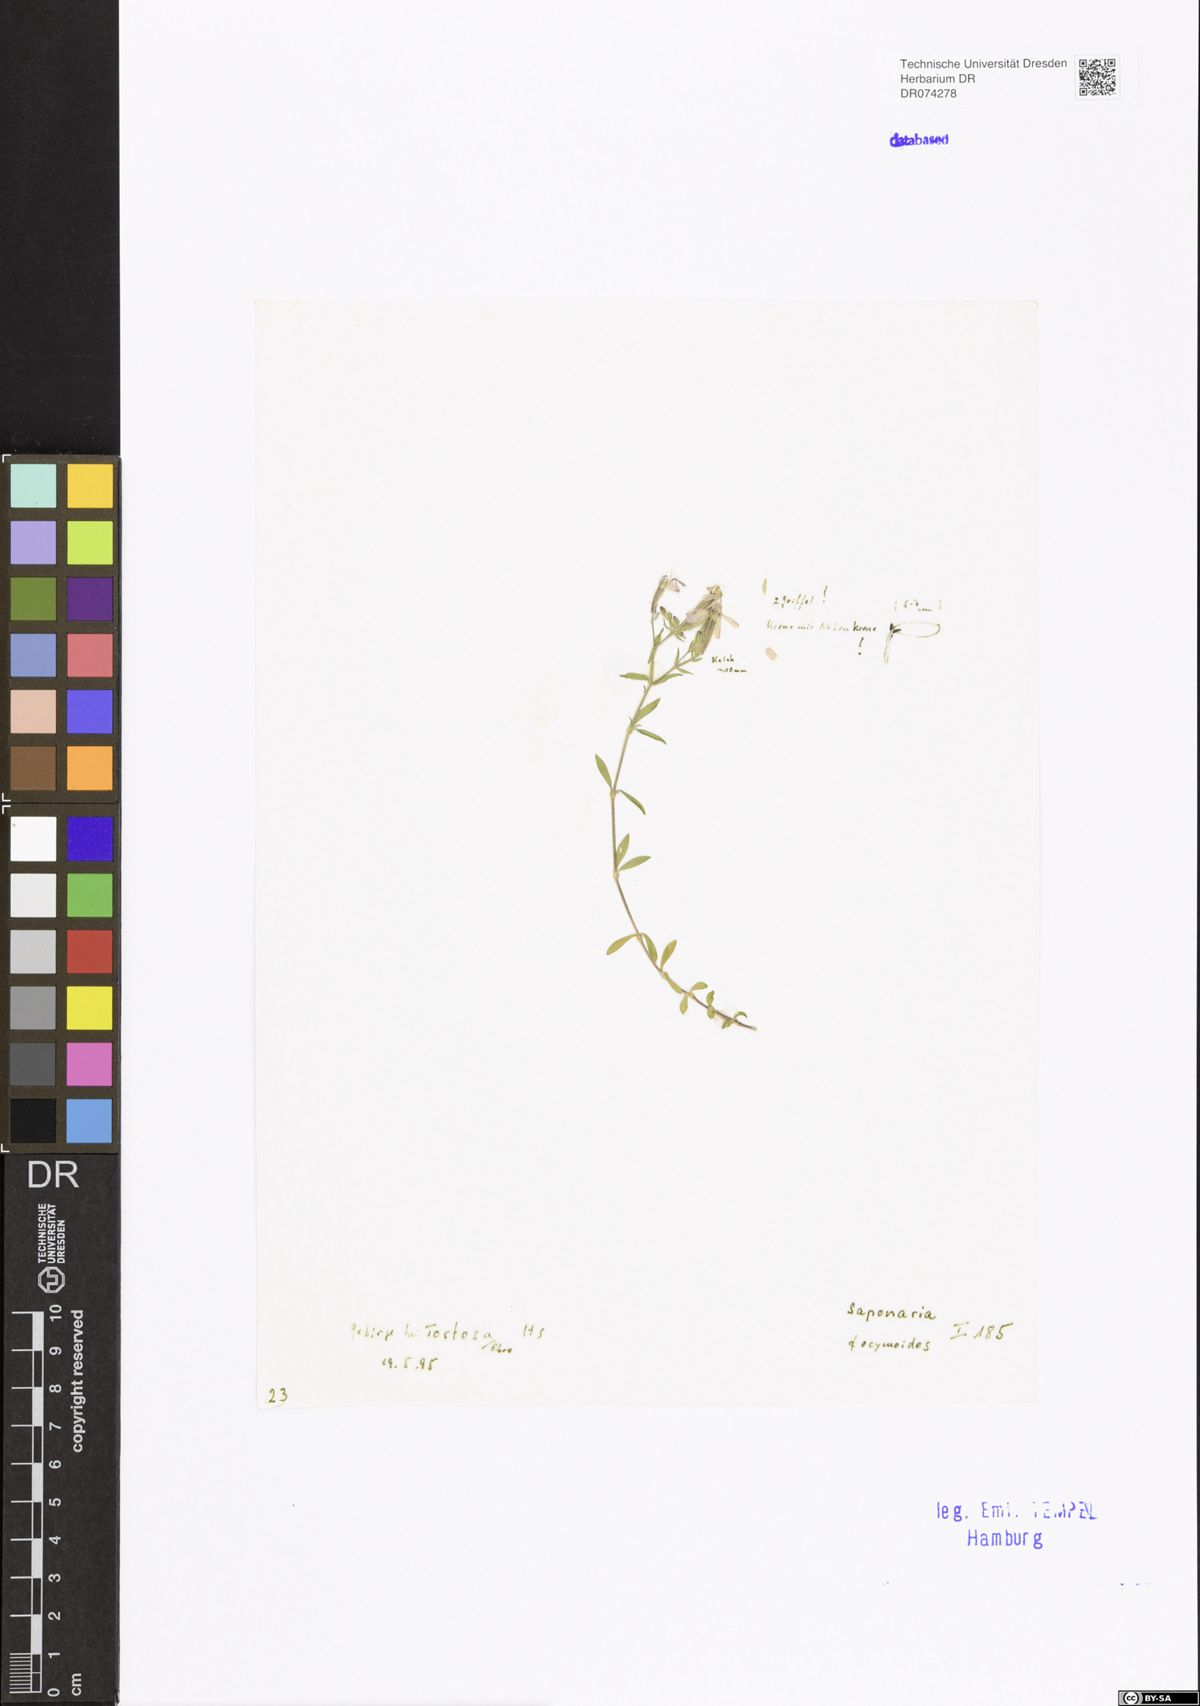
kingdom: Plantae
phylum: Tracheophyta
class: Magnoliopsida
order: Caryophyllales
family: Caryophyllaceae
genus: Saponaria
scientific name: Saponaria ocymoides
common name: Rock soapwort
